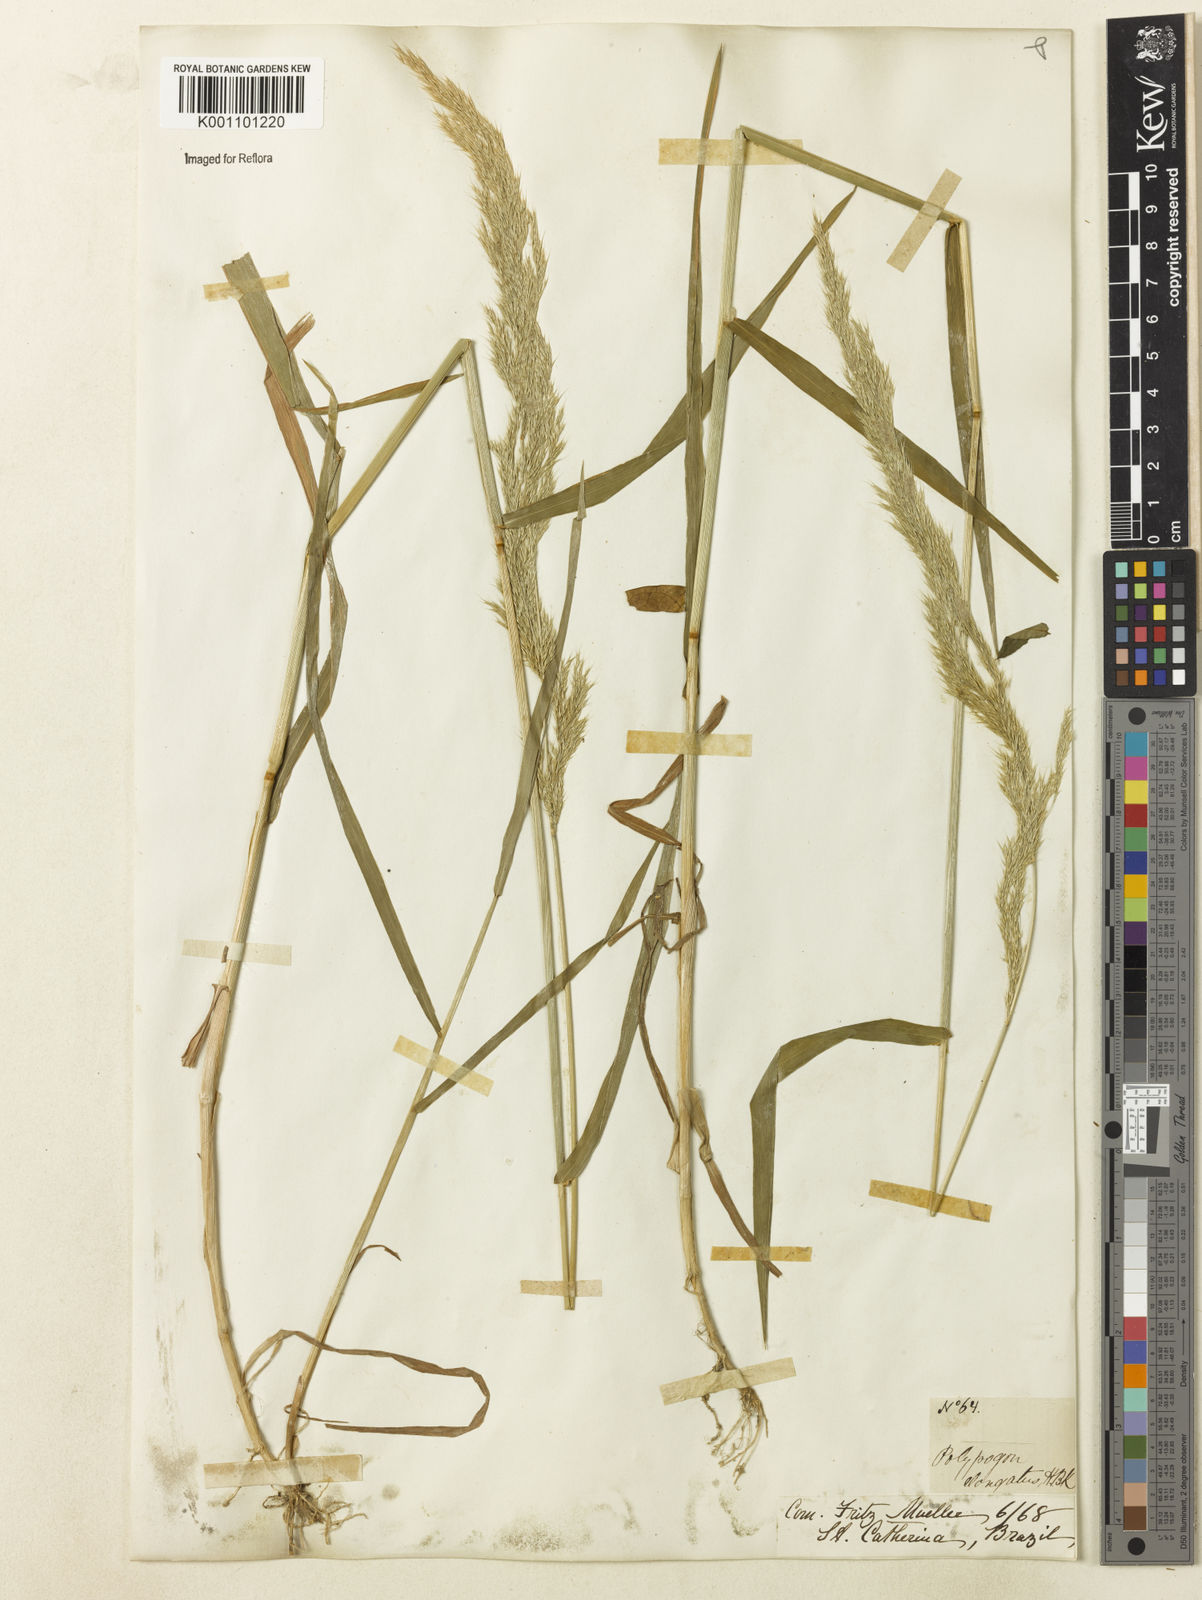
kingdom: Plantae
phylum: Tracheophyta
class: Liliopsida
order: Poales
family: Poaceae
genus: Polypogon
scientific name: Polypogon elongatus
